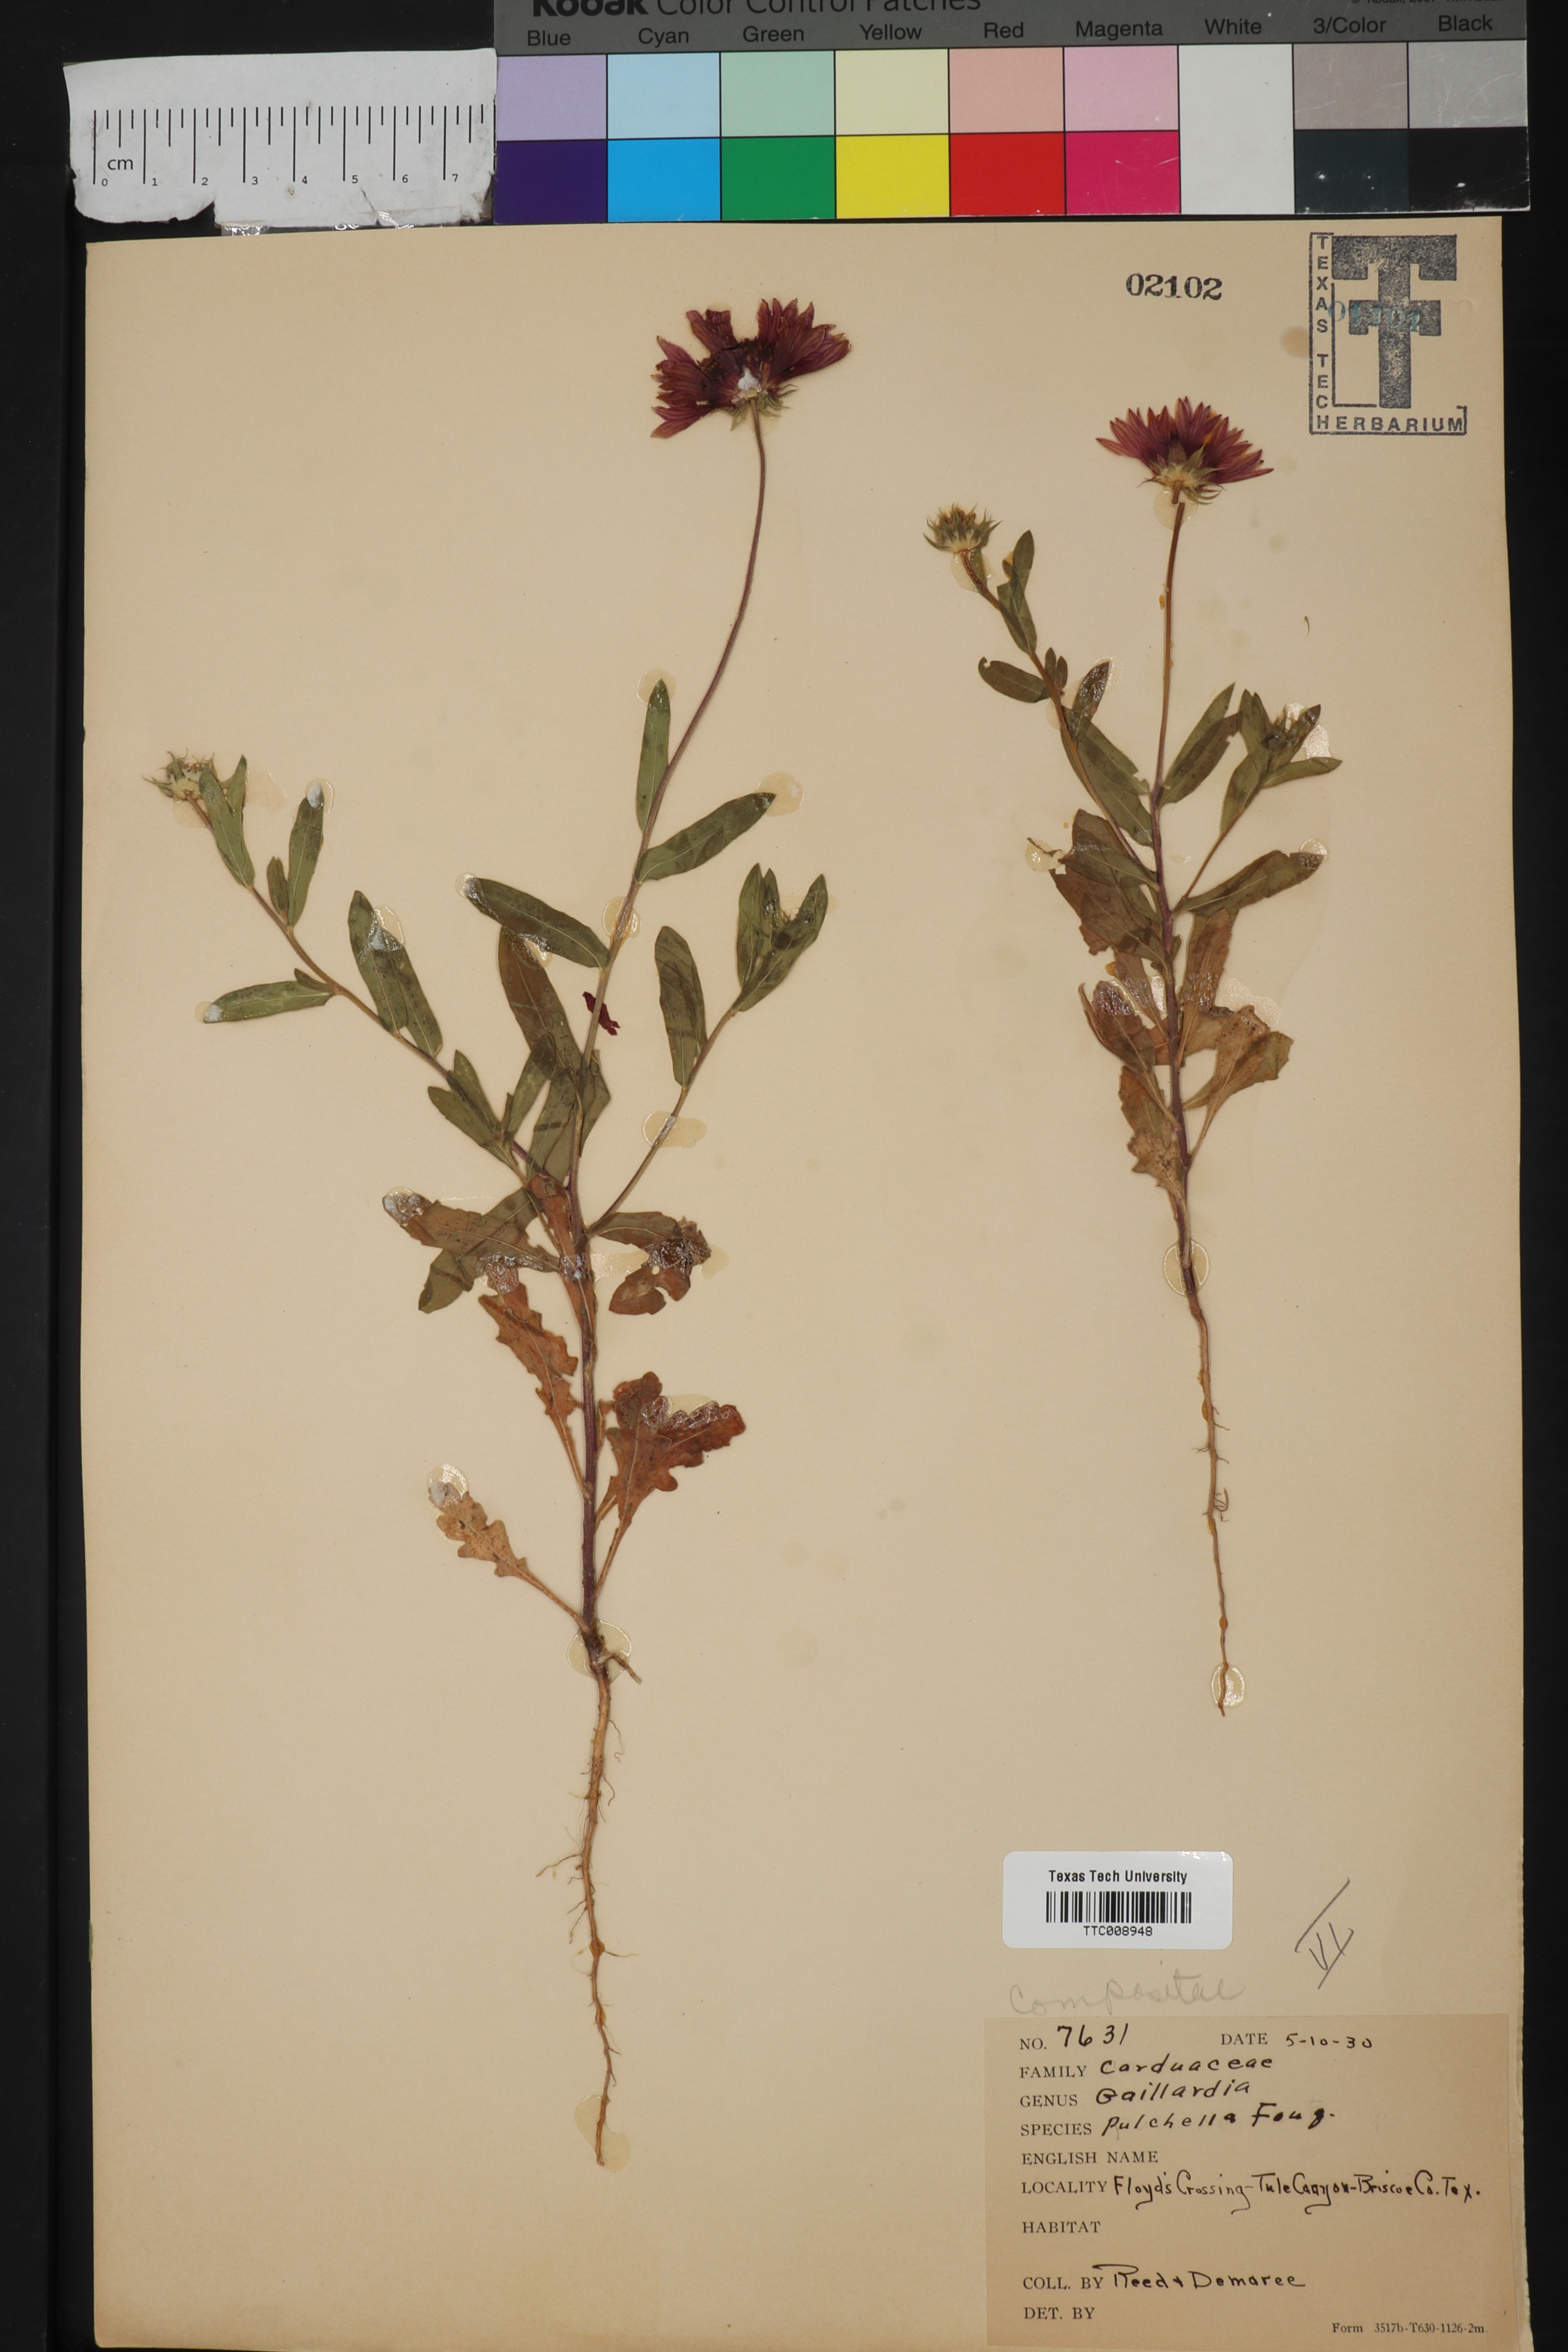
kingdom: Plantae
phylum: Tracheophyta
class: Magnoliopsida
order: Asterales
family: Asteraceae
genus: Gaillardia
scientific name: Gaillardia pulchella
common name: Firewheel
